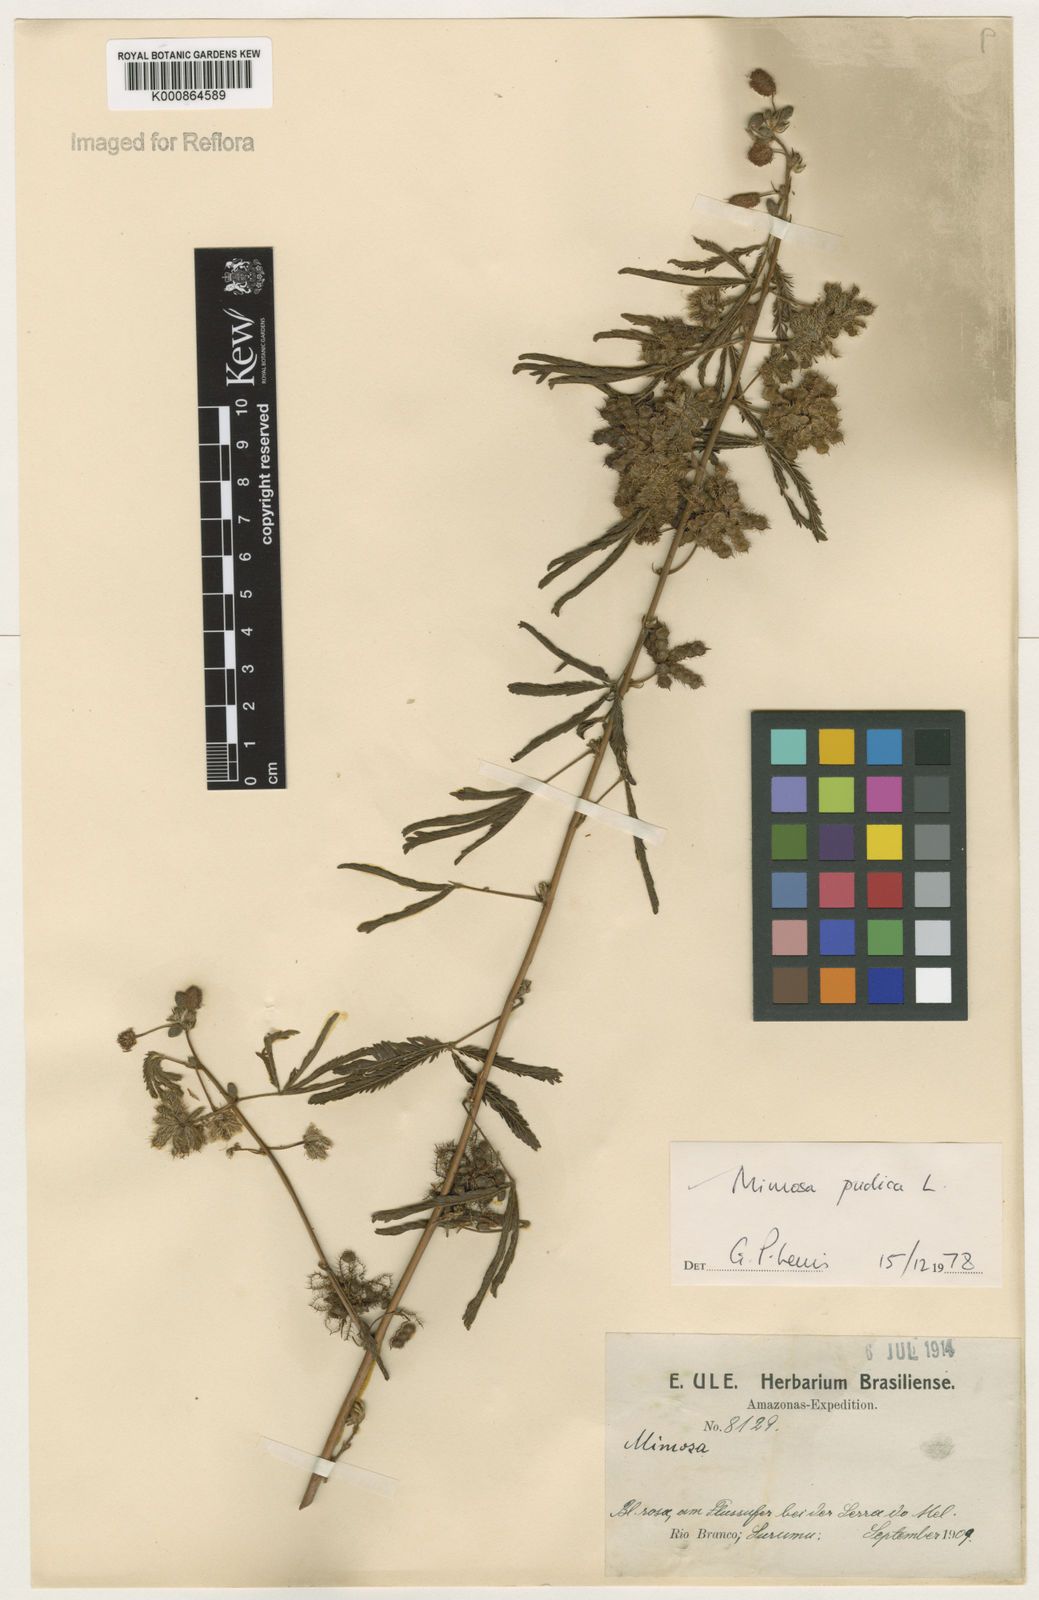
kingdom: Plantae
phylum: Tracheophyta
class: Magnoliopsida
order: Fabales
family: Fabaceae
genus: Mimosa
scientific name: Mimosa pudica
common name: Sensitive plant
